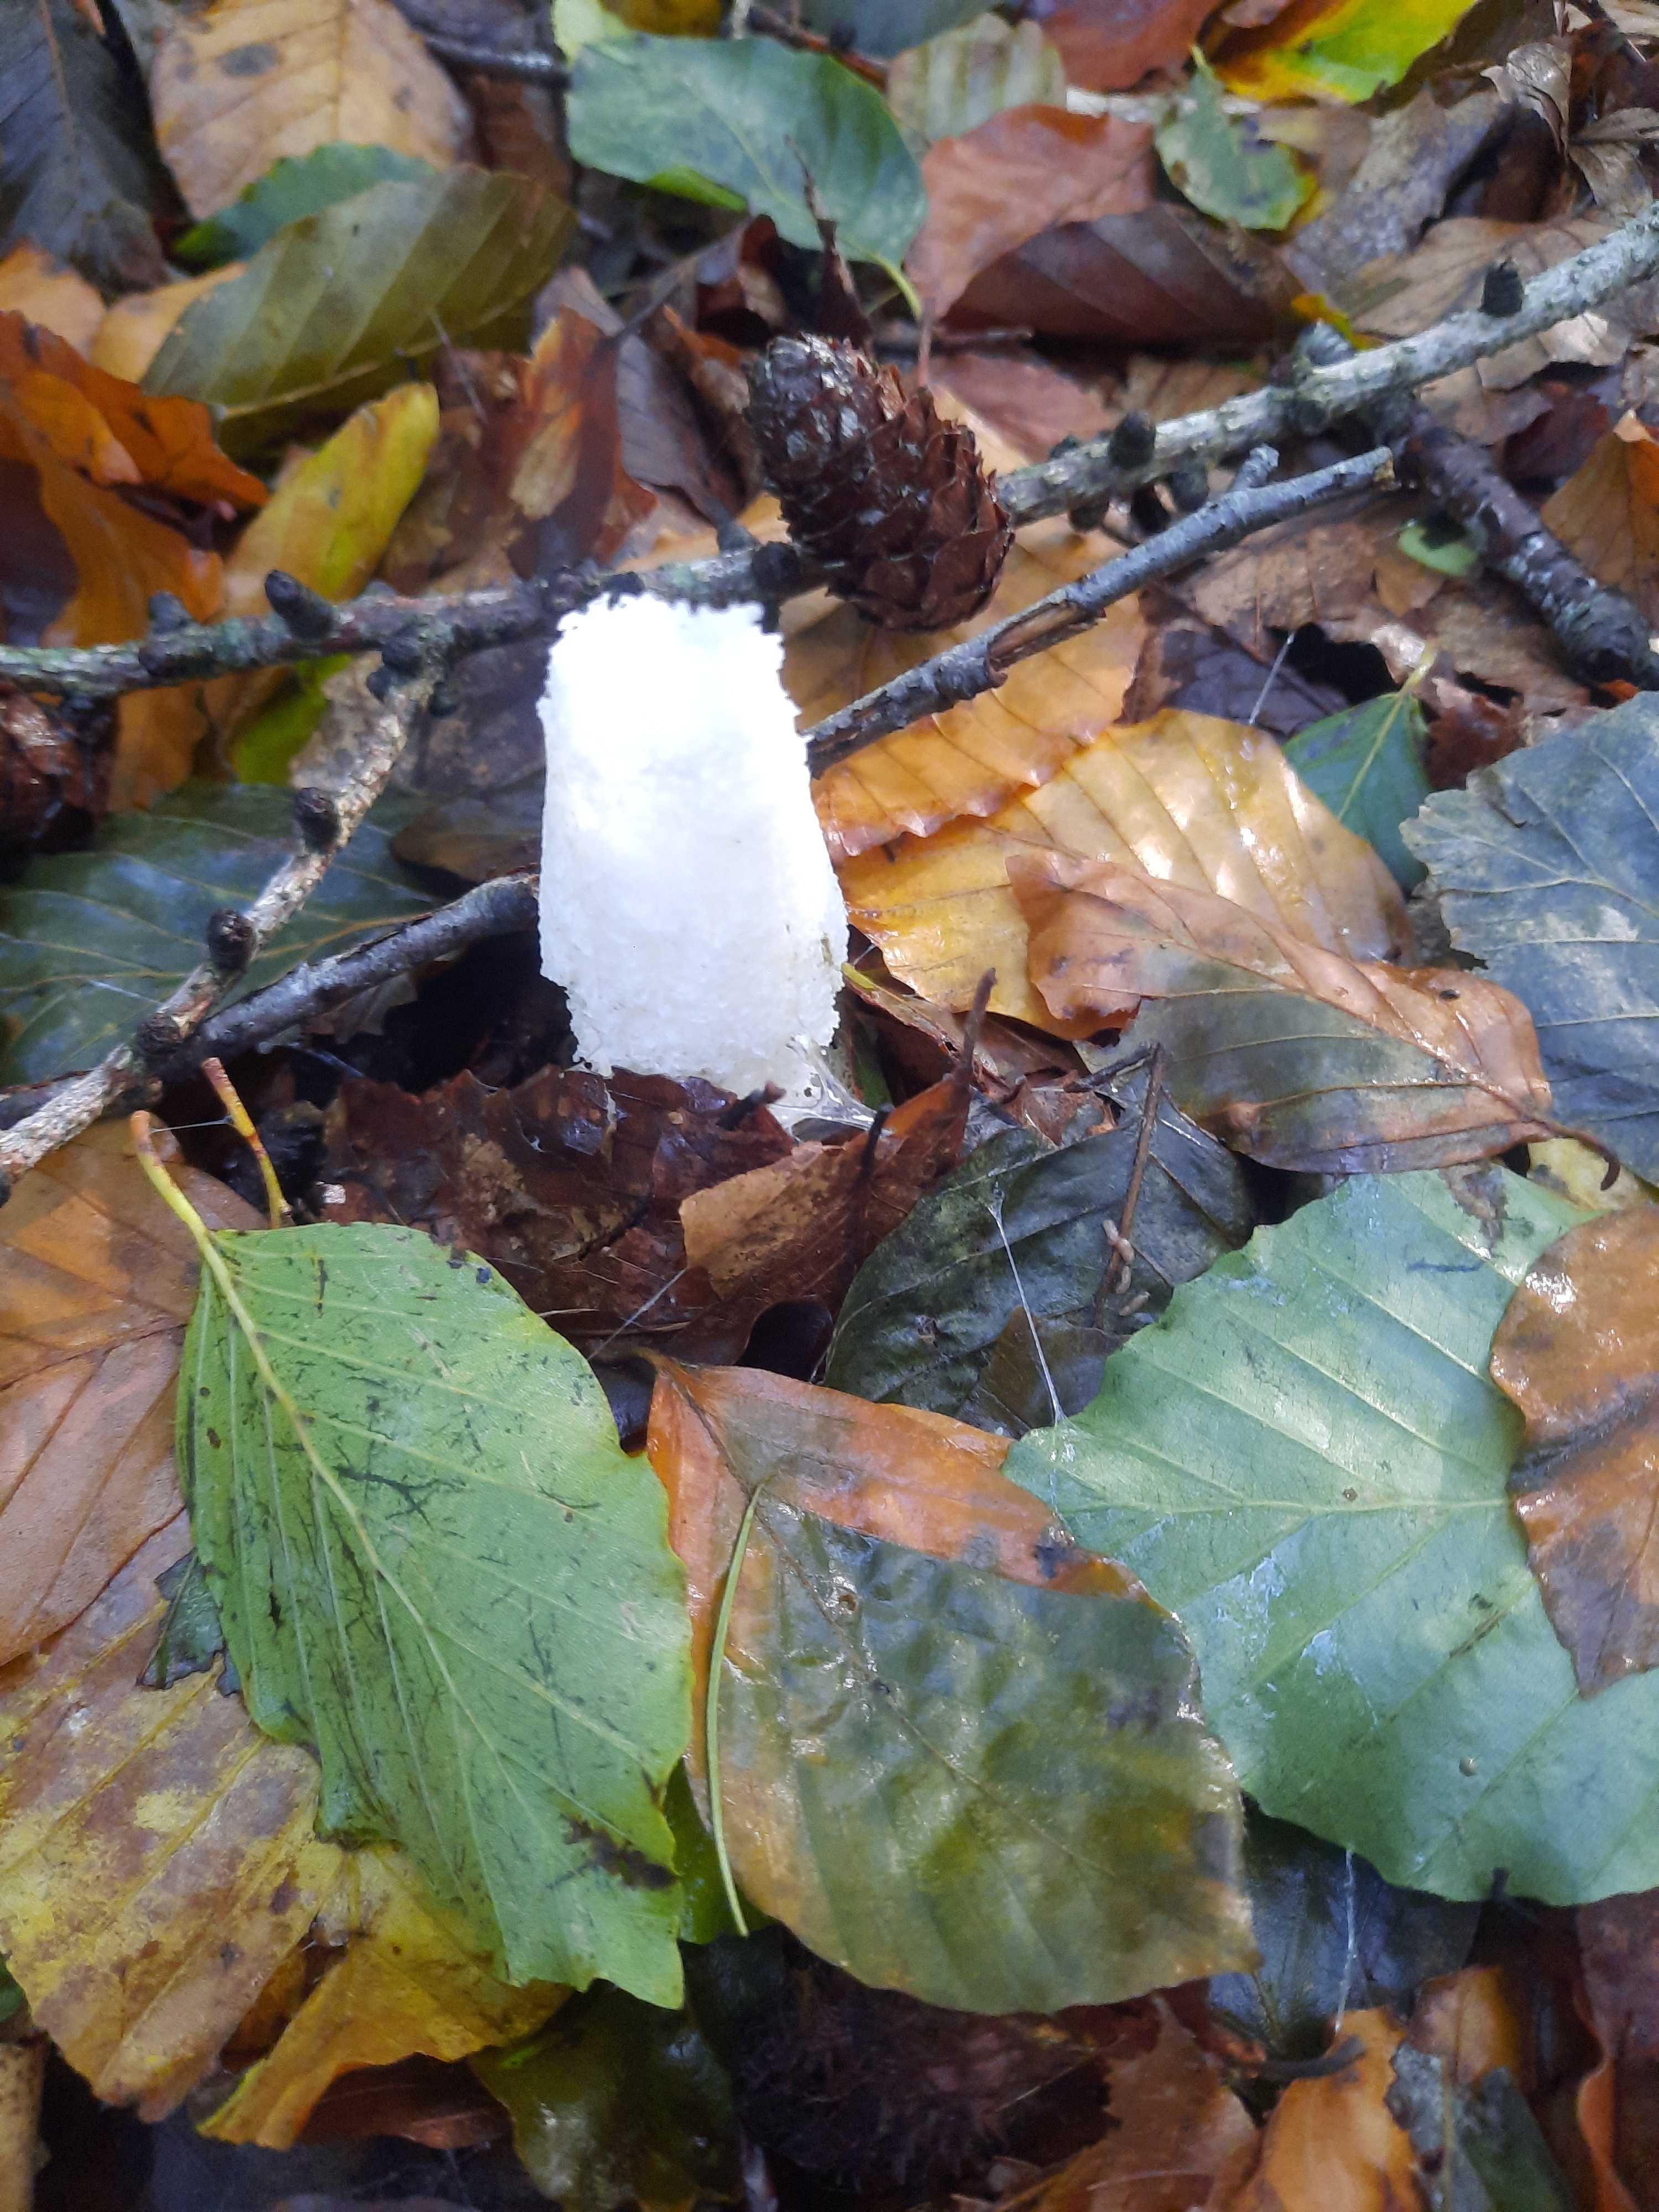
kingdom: Fungi
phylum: Basidiomycota
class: Agaricomycetes
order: Phallales
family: Phallaceae
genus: Phallus
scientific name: Phallus impudicus
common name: almindelig stinksvamp
